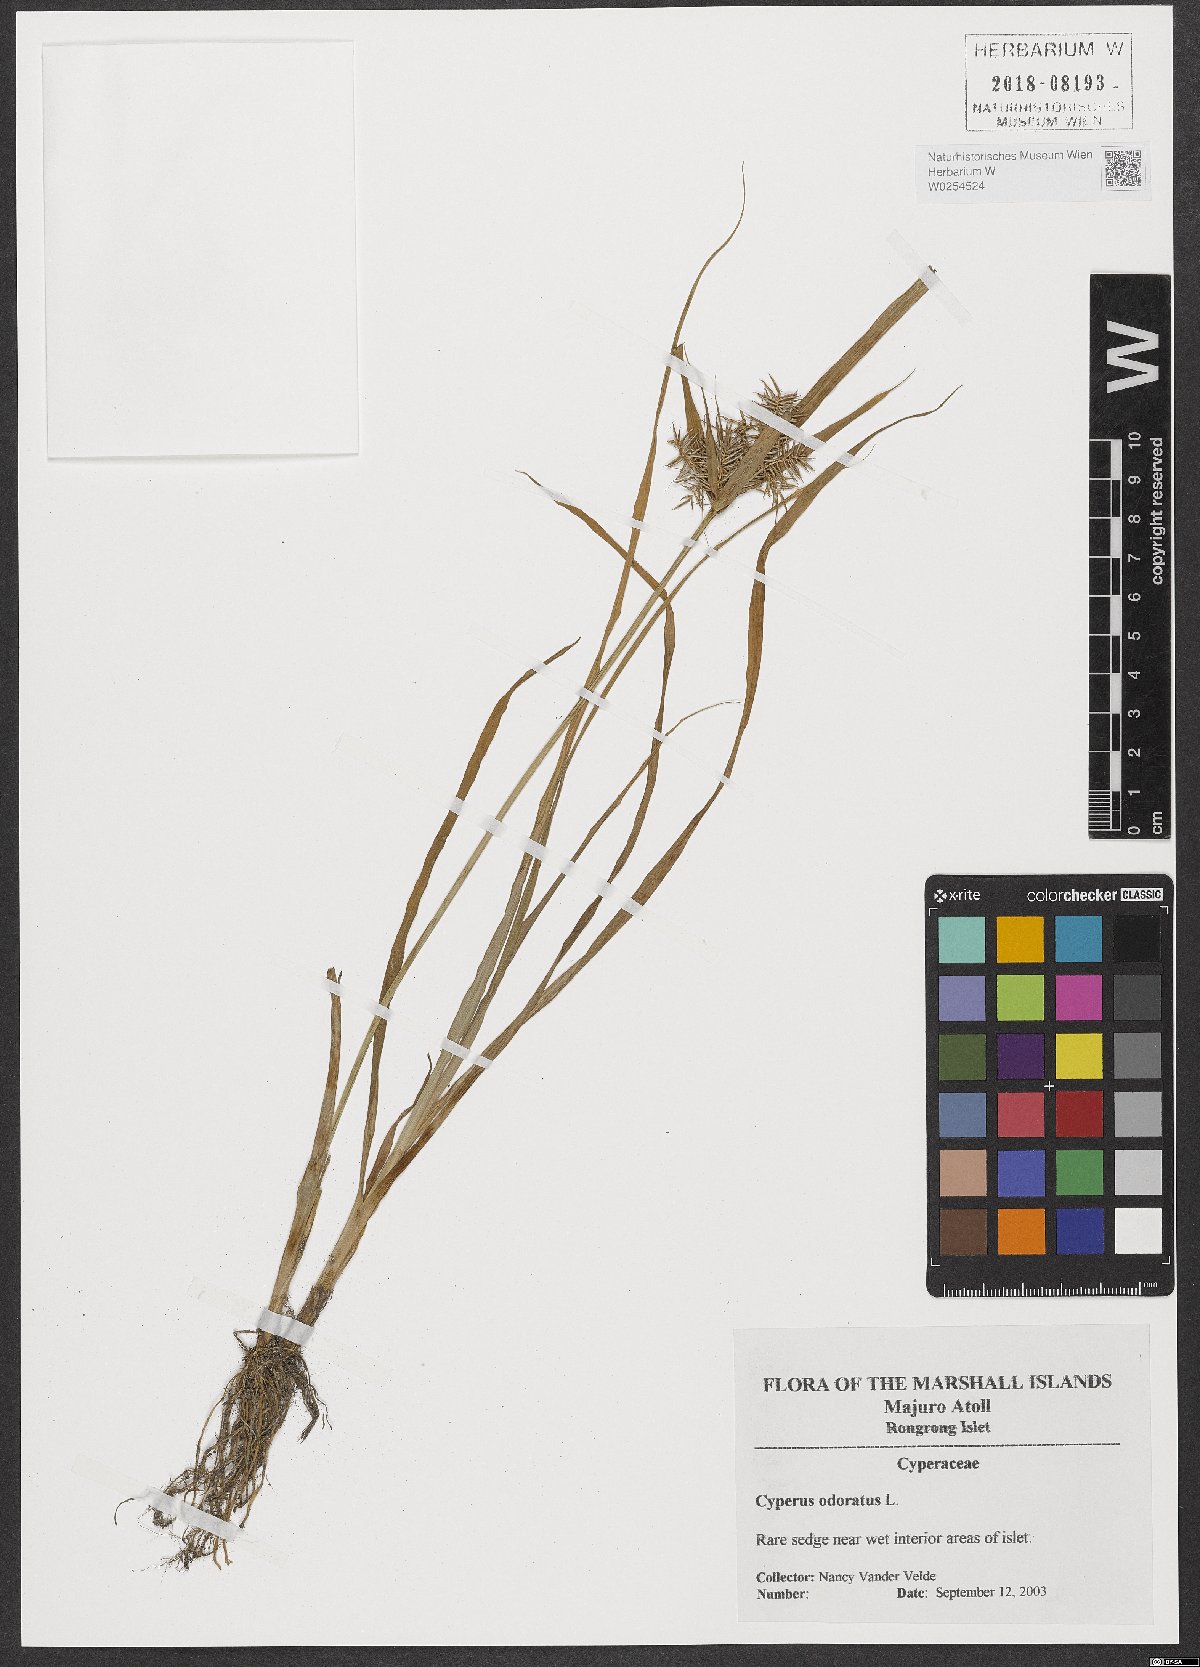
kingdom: Plantae
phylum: Tracheophyta
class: Liliopsida
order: Poales
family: Cyperaceae
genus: Cyperus
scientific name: Cyperus odoratus
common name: Fragrant flatsedge
